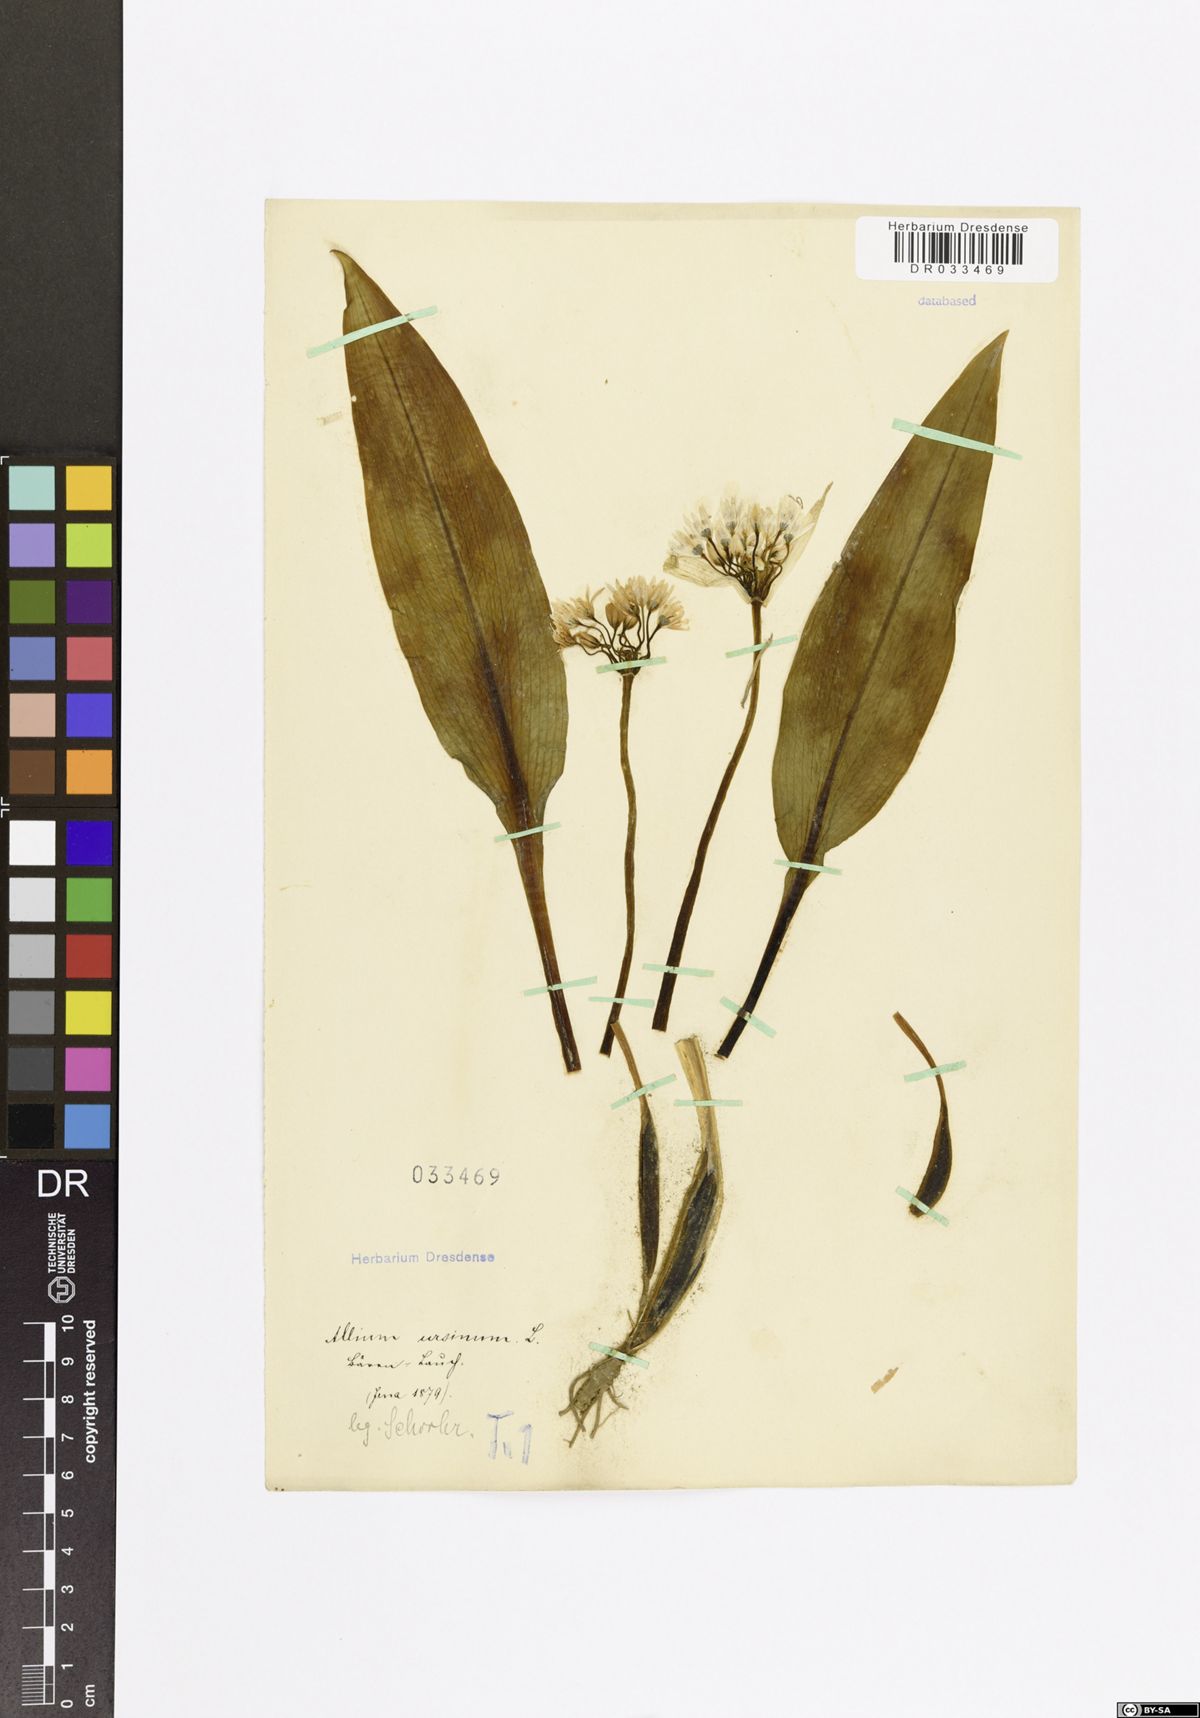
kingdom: Plantae
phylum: Tracheophyta
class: Liliopsida
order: Asparagales
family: Amaryllidaceae
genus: Allium
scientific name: Allium ursinum
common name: Ramsons
